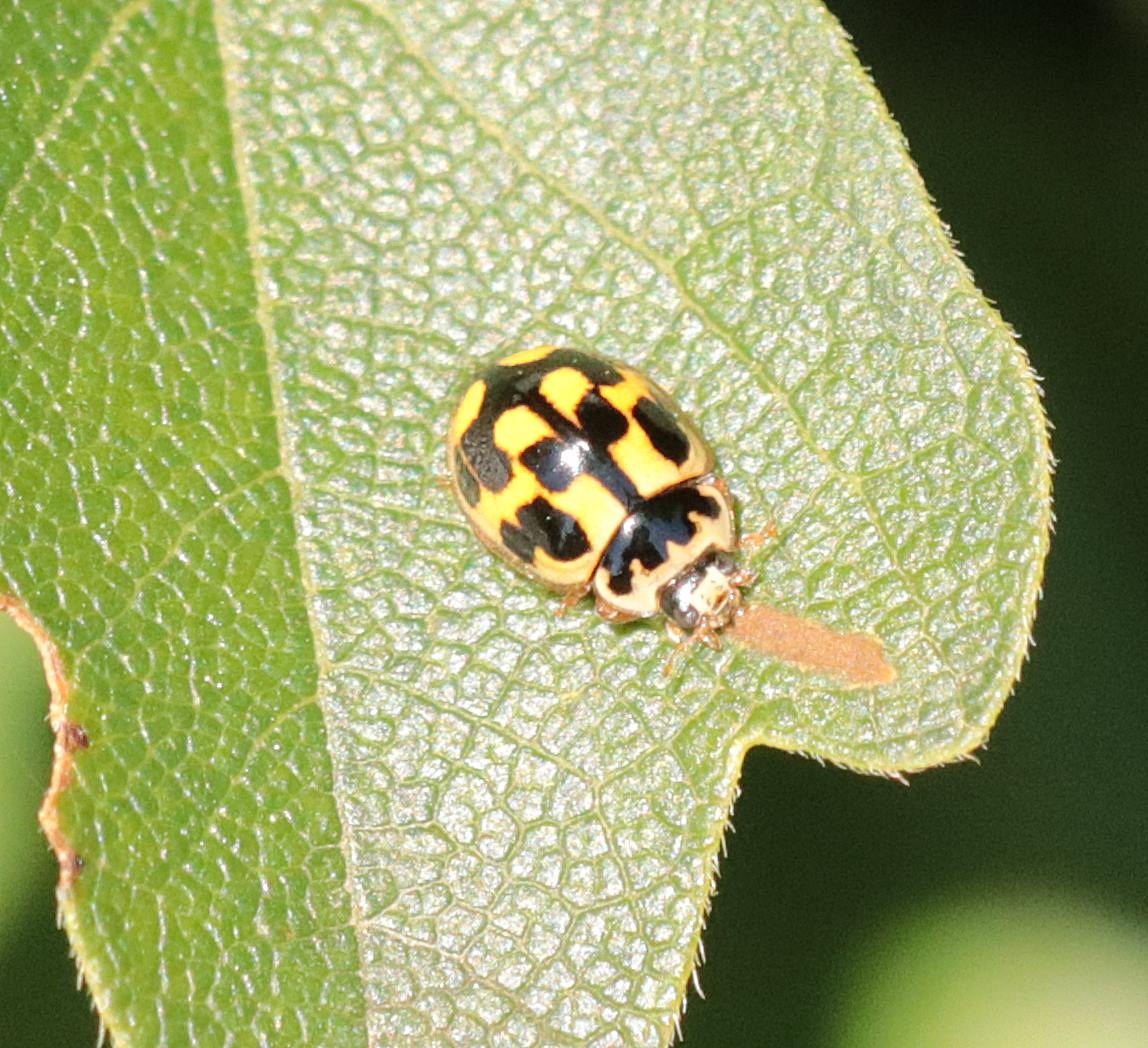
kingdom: Animalia
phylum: Arthropoda
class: Insecta
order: Coleoptera
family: Coccinellidae
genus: Propylaea
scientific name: Propylaea quatuordecimpunctata
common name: Skakbræt
